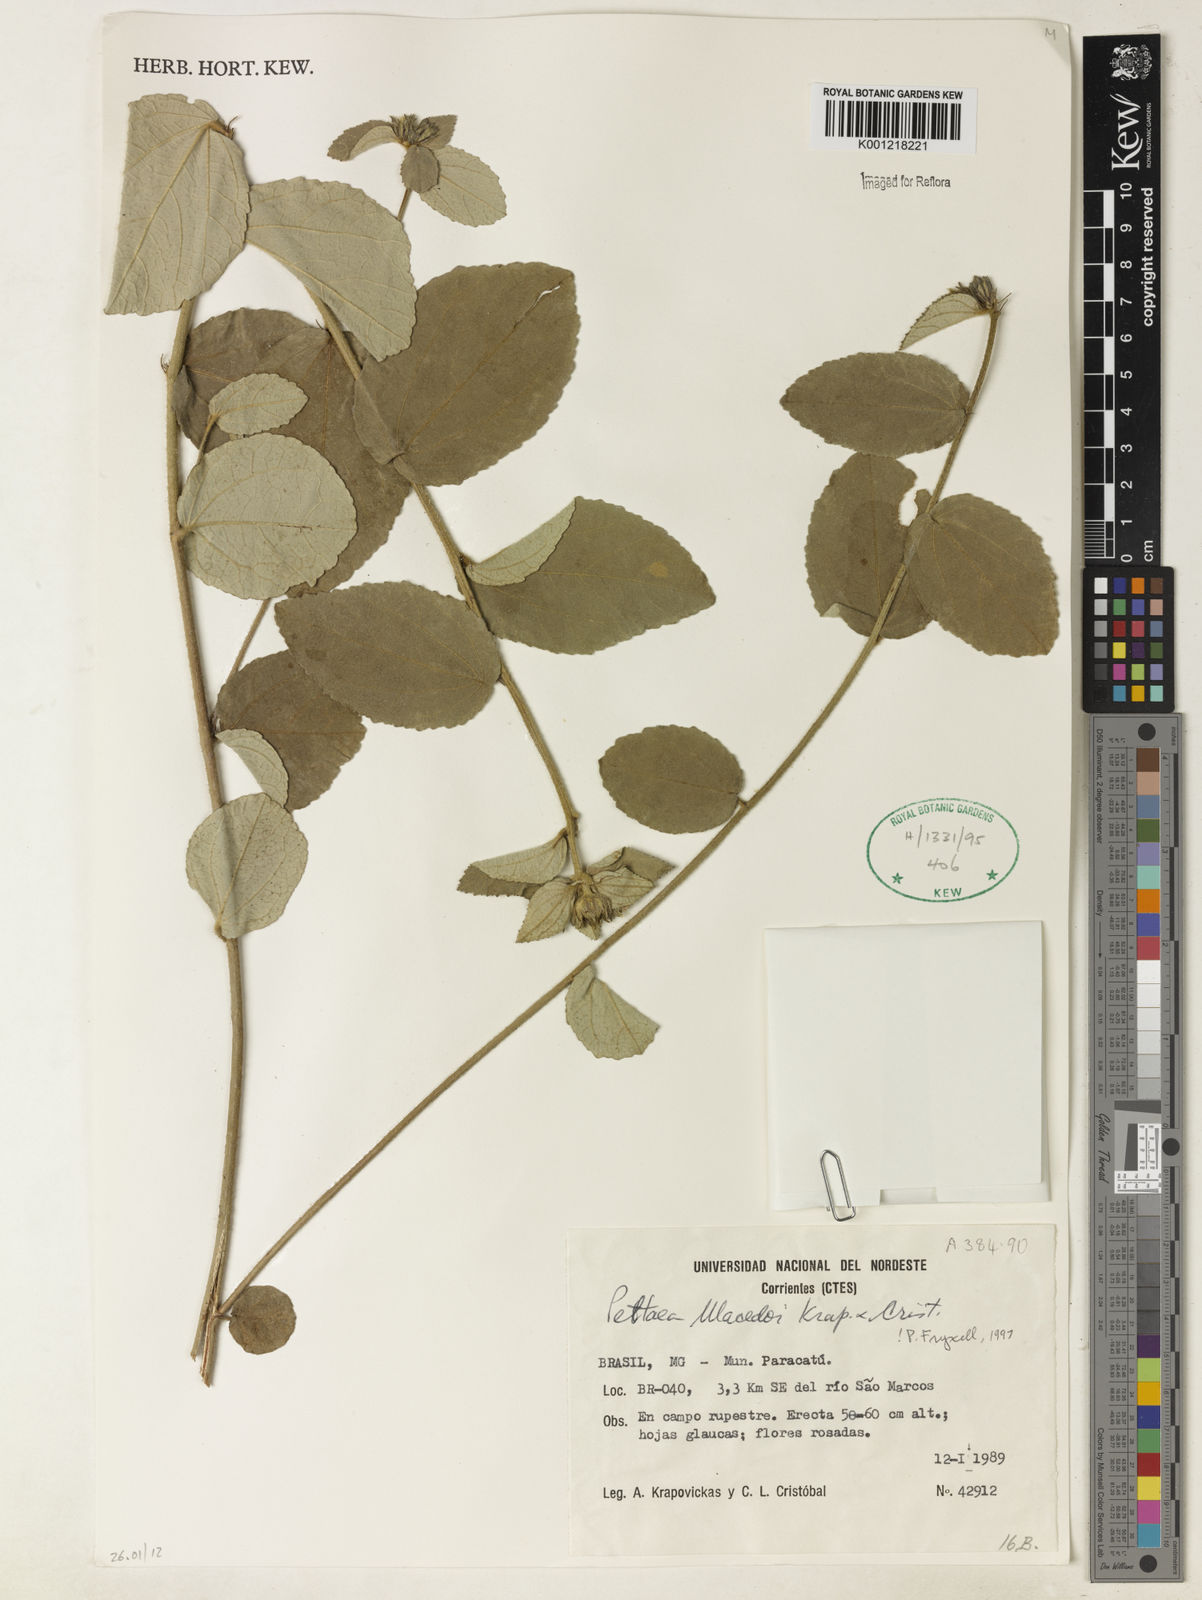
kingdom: Plantae
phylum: Tracheophyta
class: Magnoliopsida
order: Malvales
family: Malvaceae
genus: Peltaea
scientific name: Peltaea
